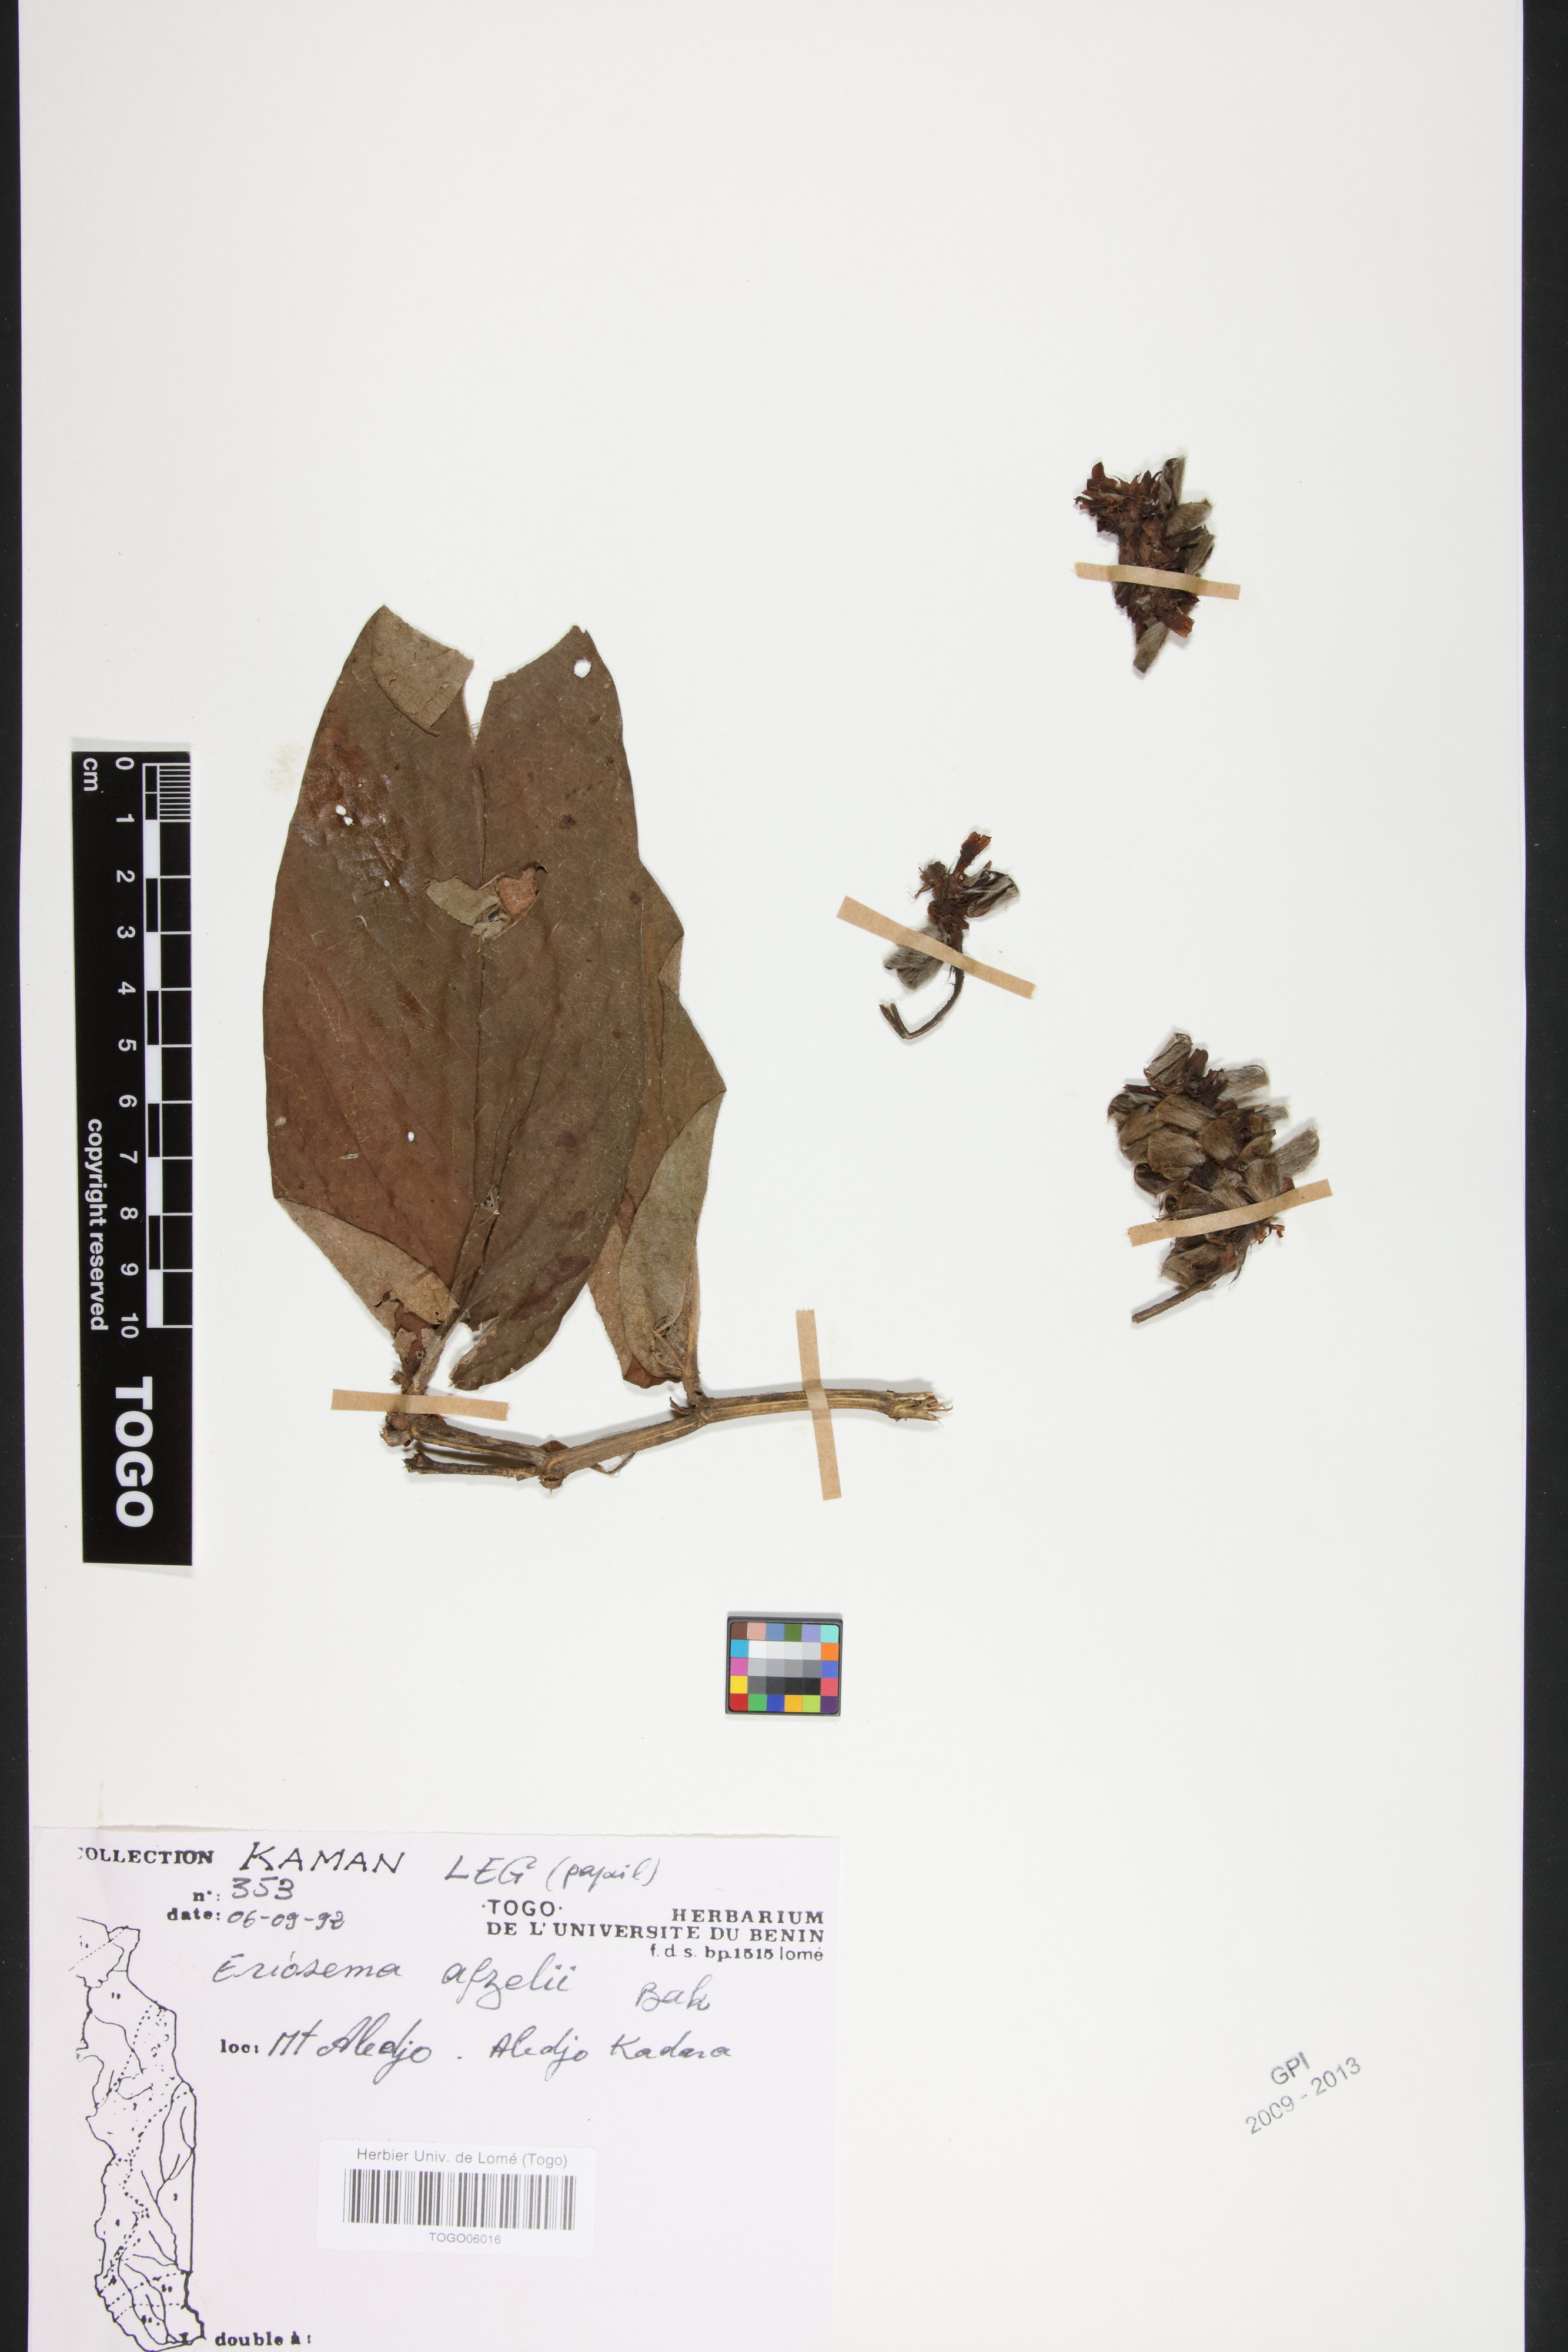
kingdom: Plantae
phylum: Tracheophyta
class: Magnoliopsida
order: Fabales
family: Fabaceae
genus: Eriosema
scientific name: Eriosema afzelii
